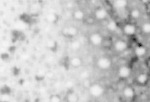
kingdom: Animalia
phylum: Chordata
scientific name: Chordata
